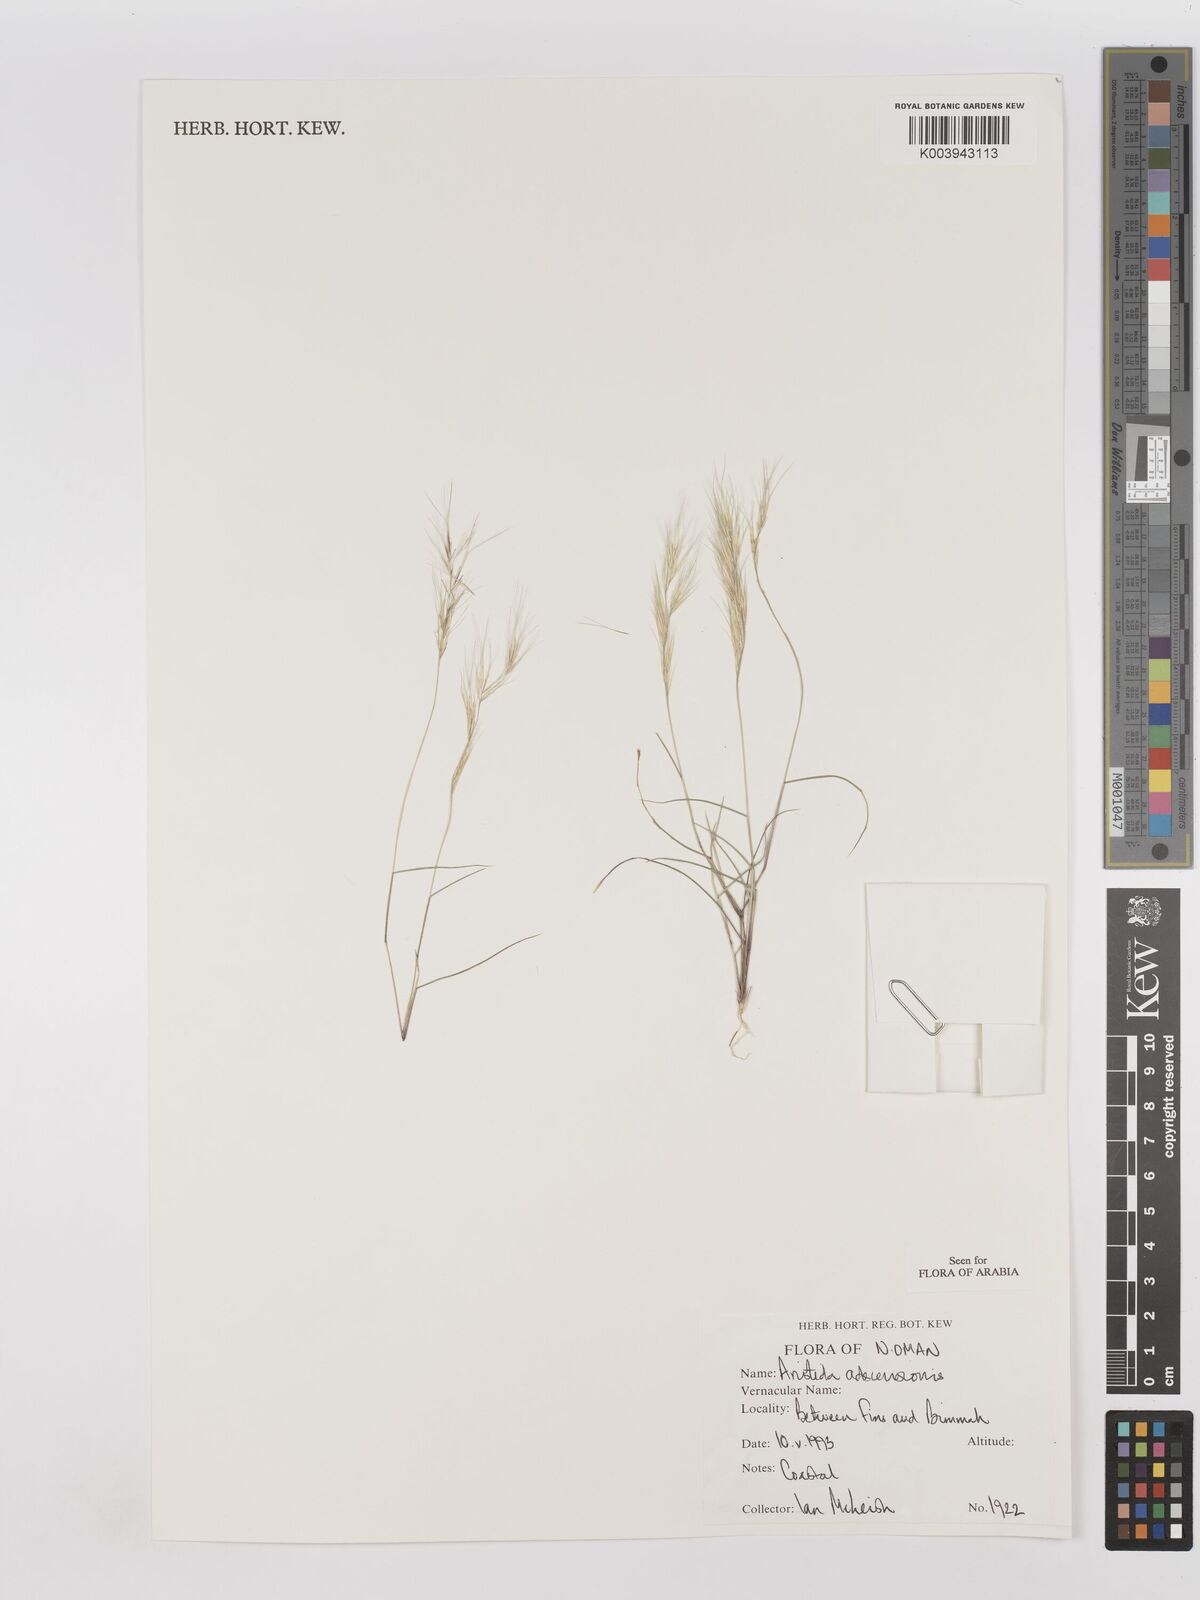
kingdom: Plantae
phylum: Tracheophyta
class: Liliopsida
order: Poales
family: Poaceae
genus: Aristida
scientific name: Aristida adscensionis
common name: Sixweeks threeawn
